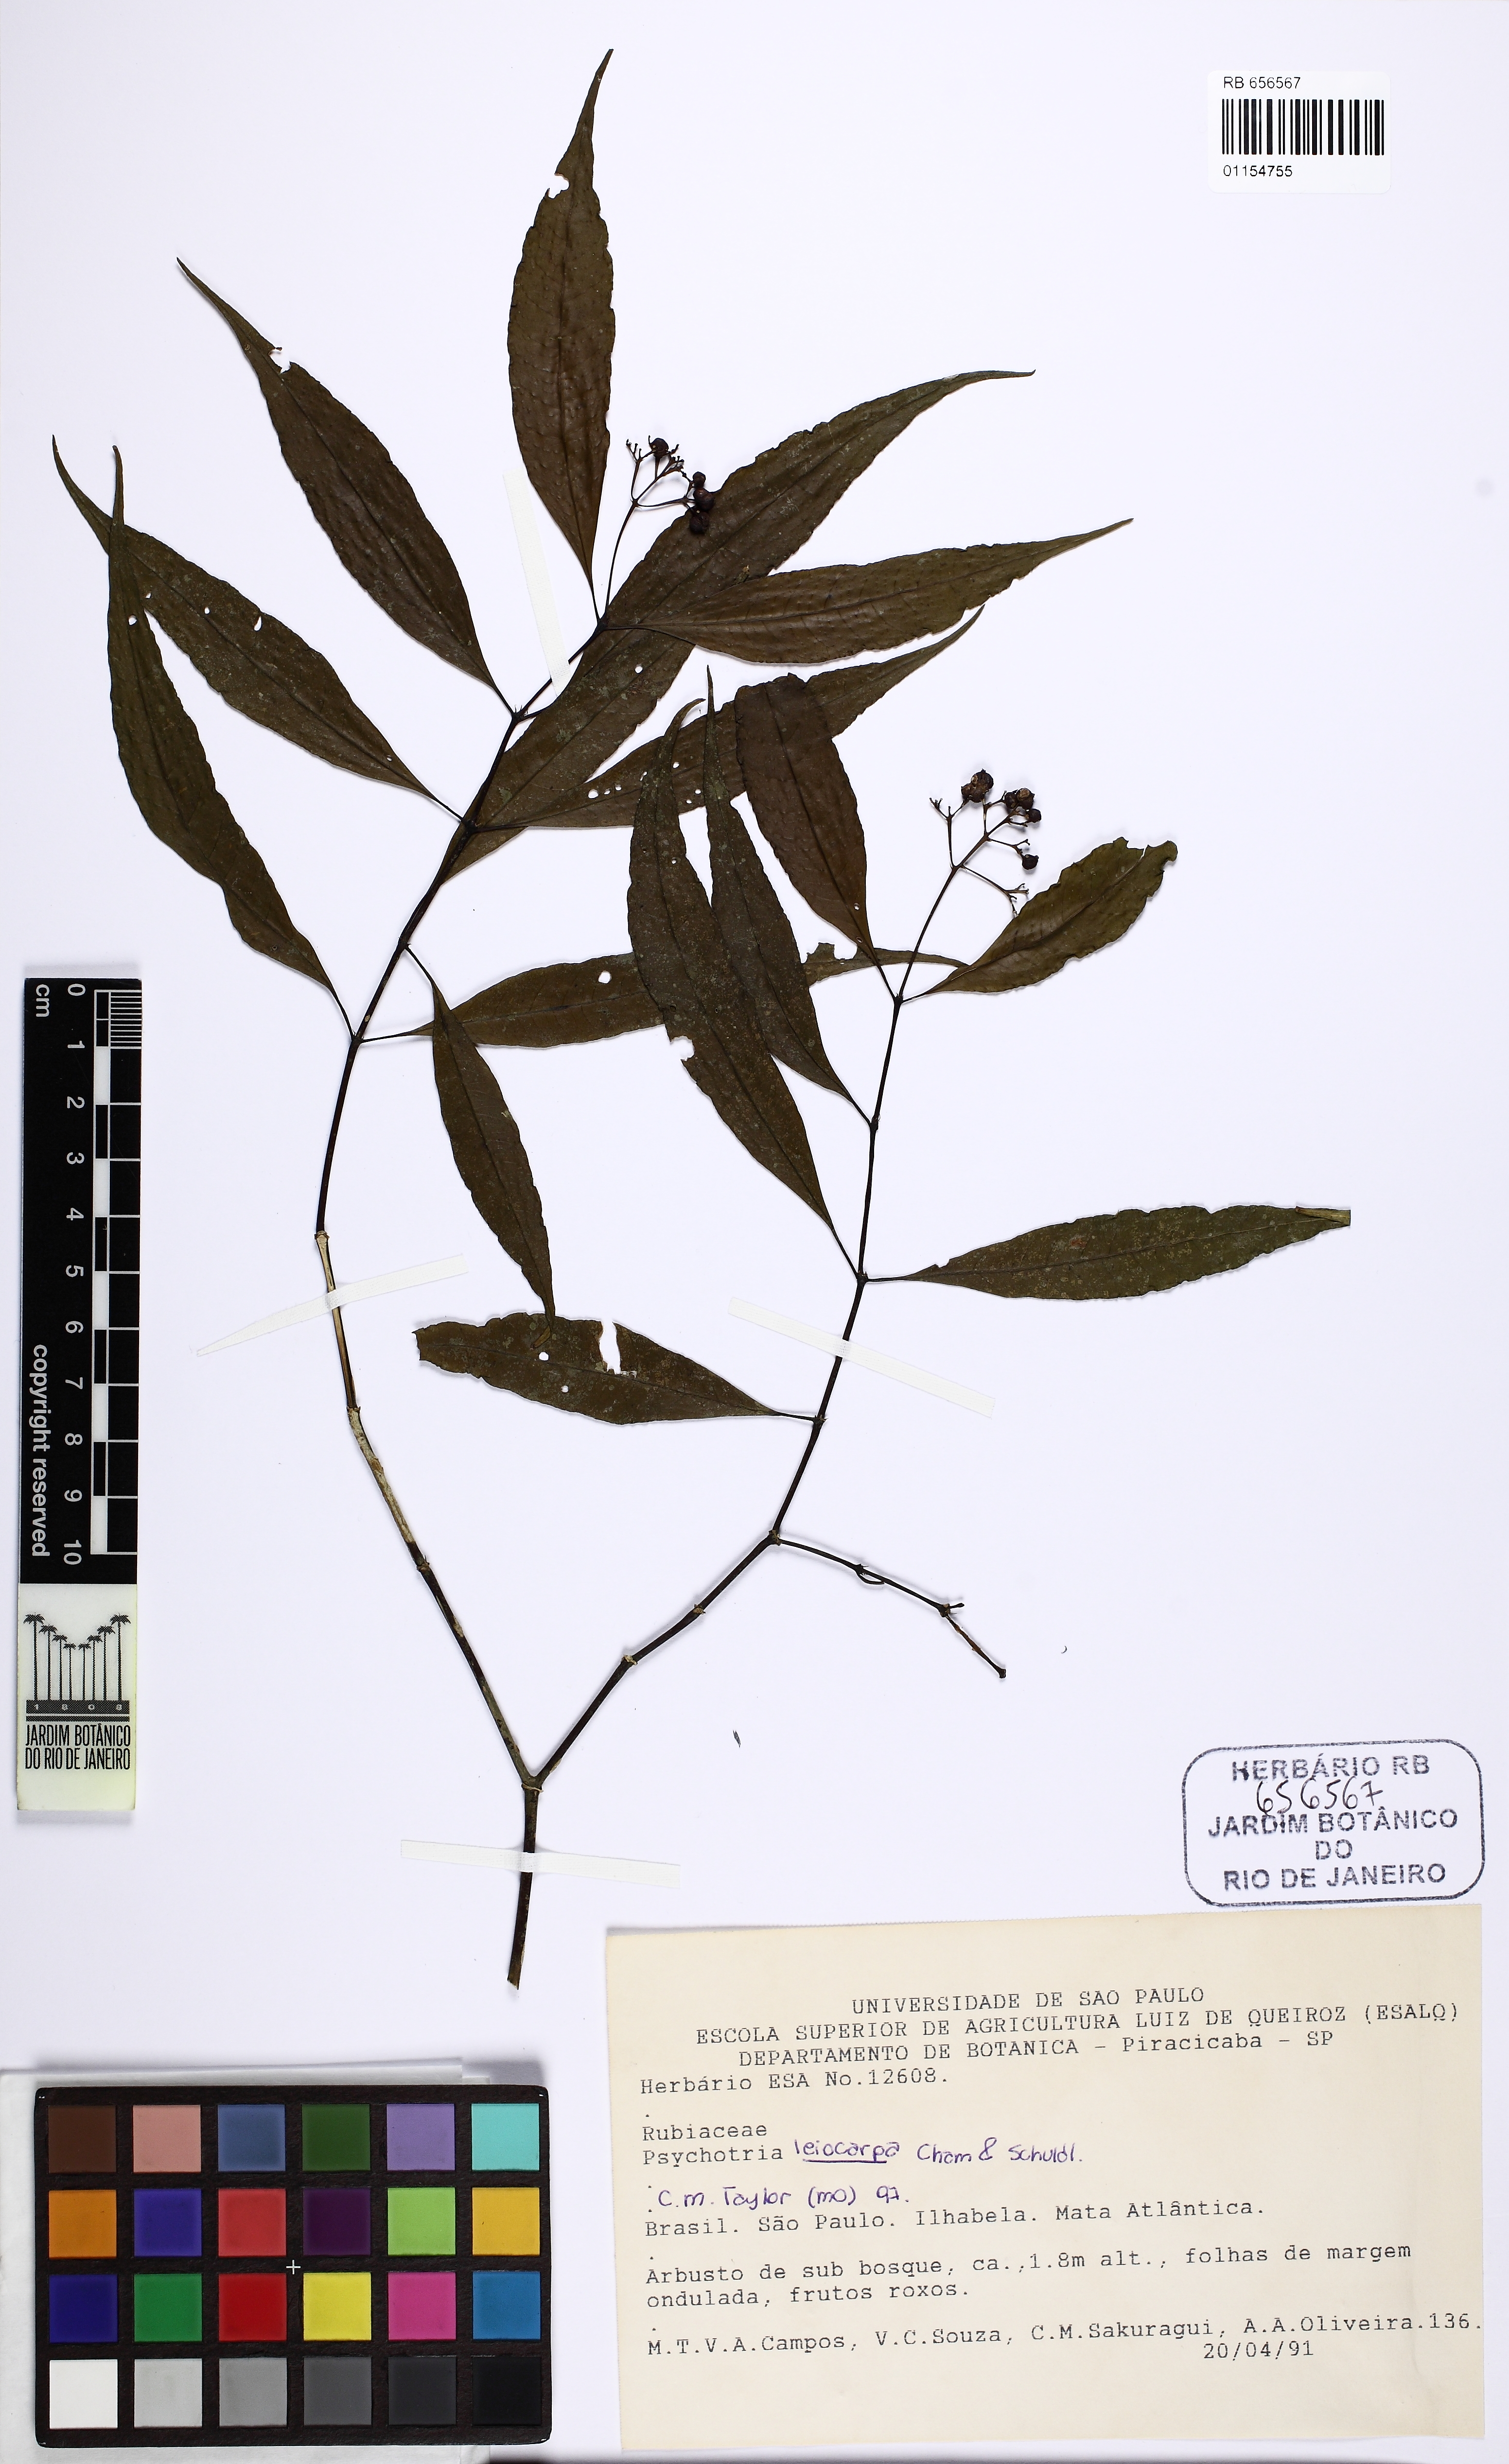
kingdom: Plantae
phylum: Tracheophyta
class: Magnoliopsida
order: Gentianales
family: Rubiaceae
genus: Psychotria
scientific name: Psychotria leiocarpa
